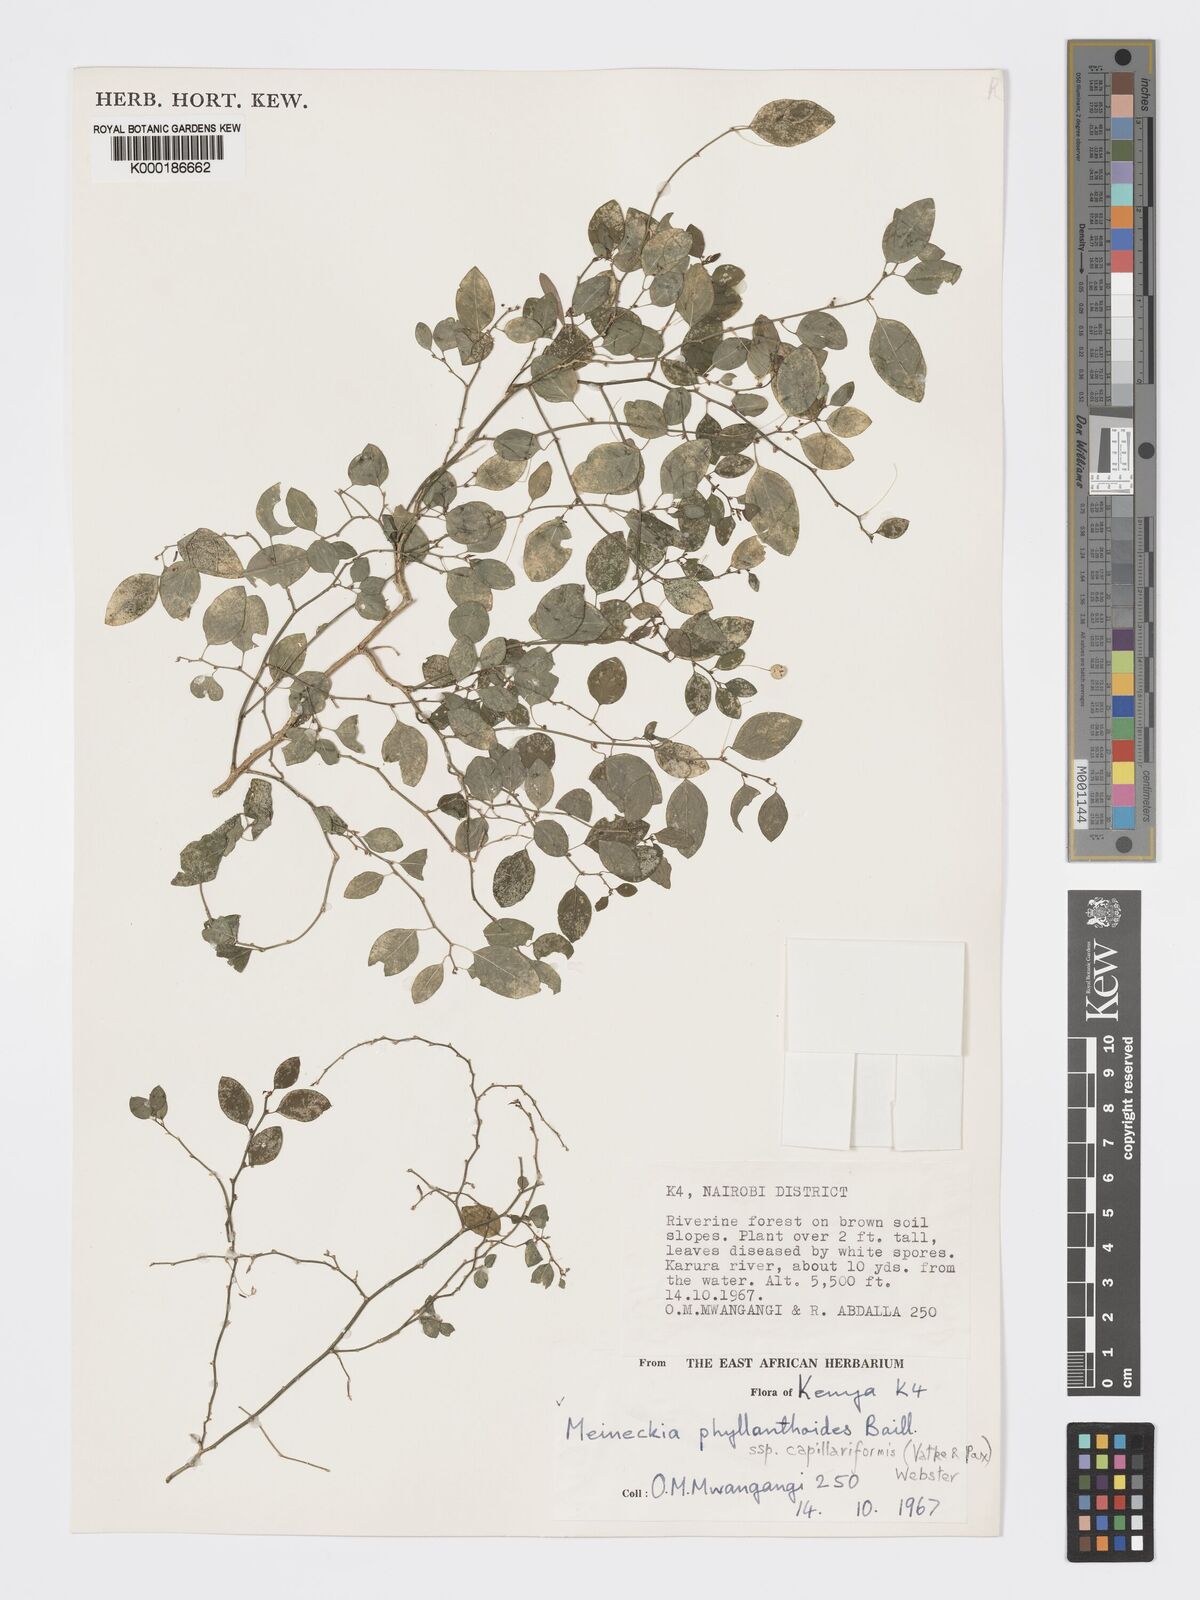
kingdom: Plantae
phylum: Tracheophyta
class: Magnoliopsida
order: Malpighiales
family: Phyllanthaceae
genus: Meineckia
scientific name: Meineckia phyllanthoides
